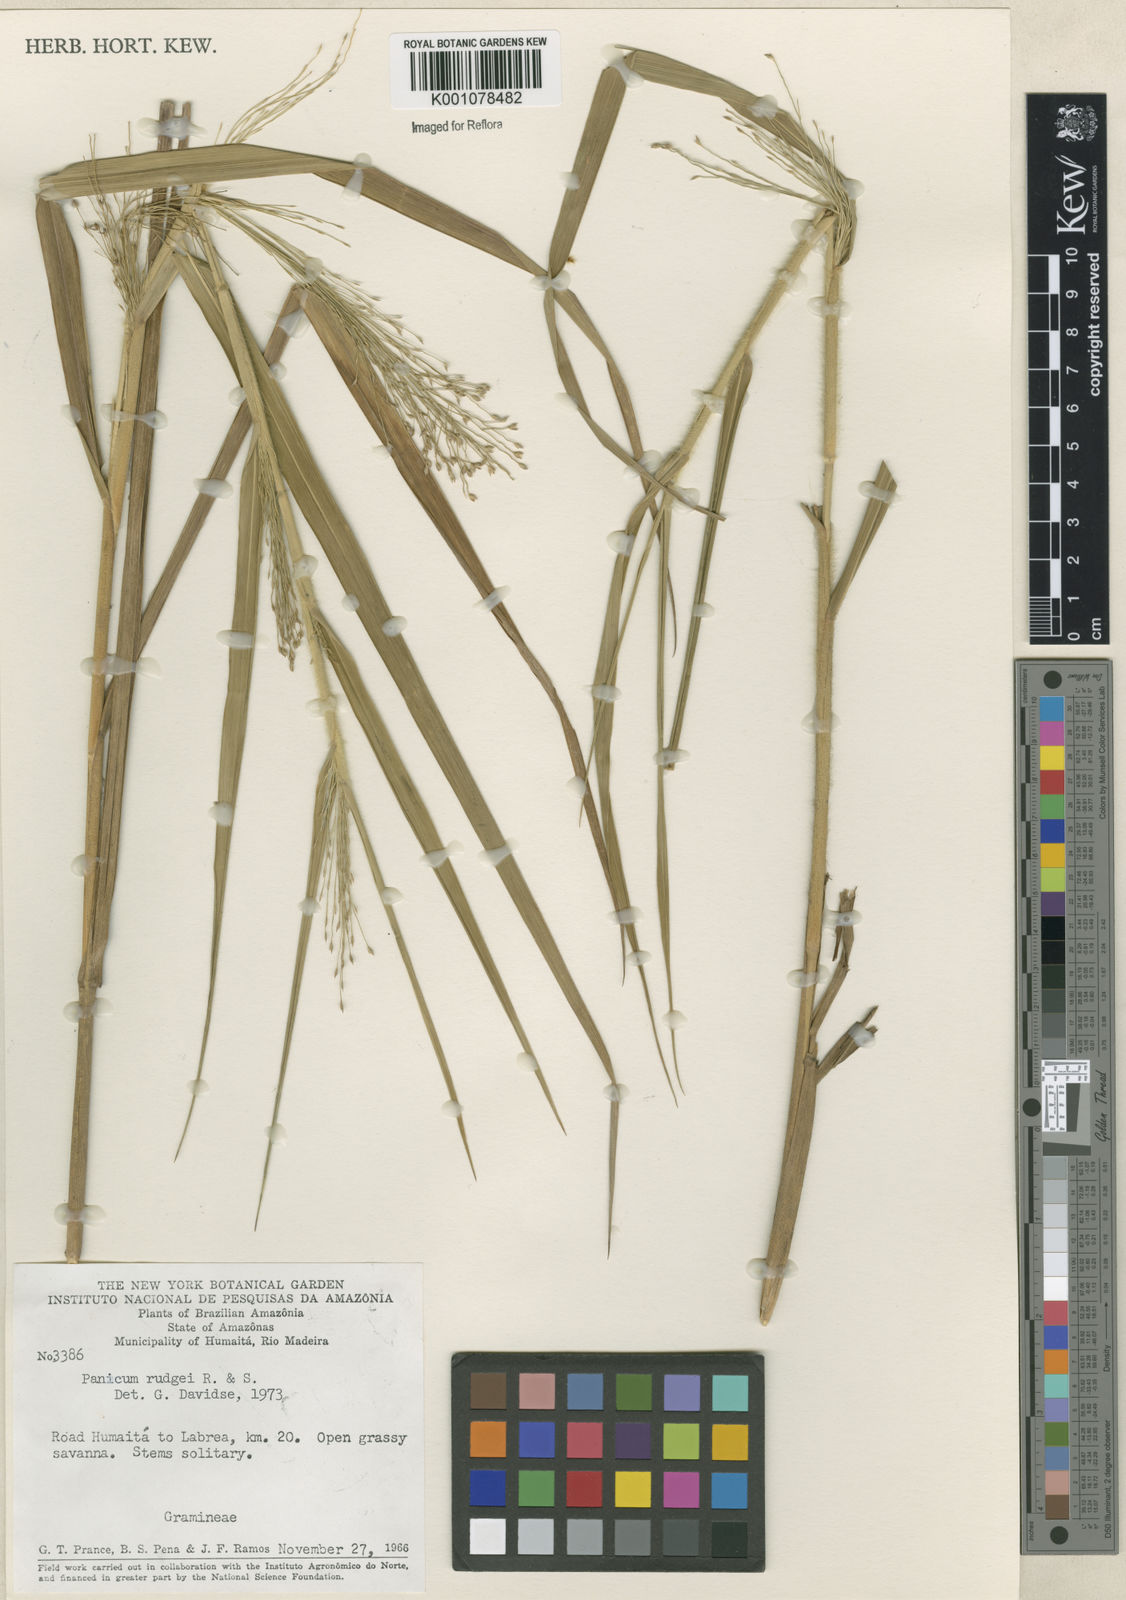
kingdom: Plantae
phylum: Tracheophyta
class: Liliopsida
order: Poales
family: Poaceae
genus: Panicum
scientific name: Panicum rudgei
